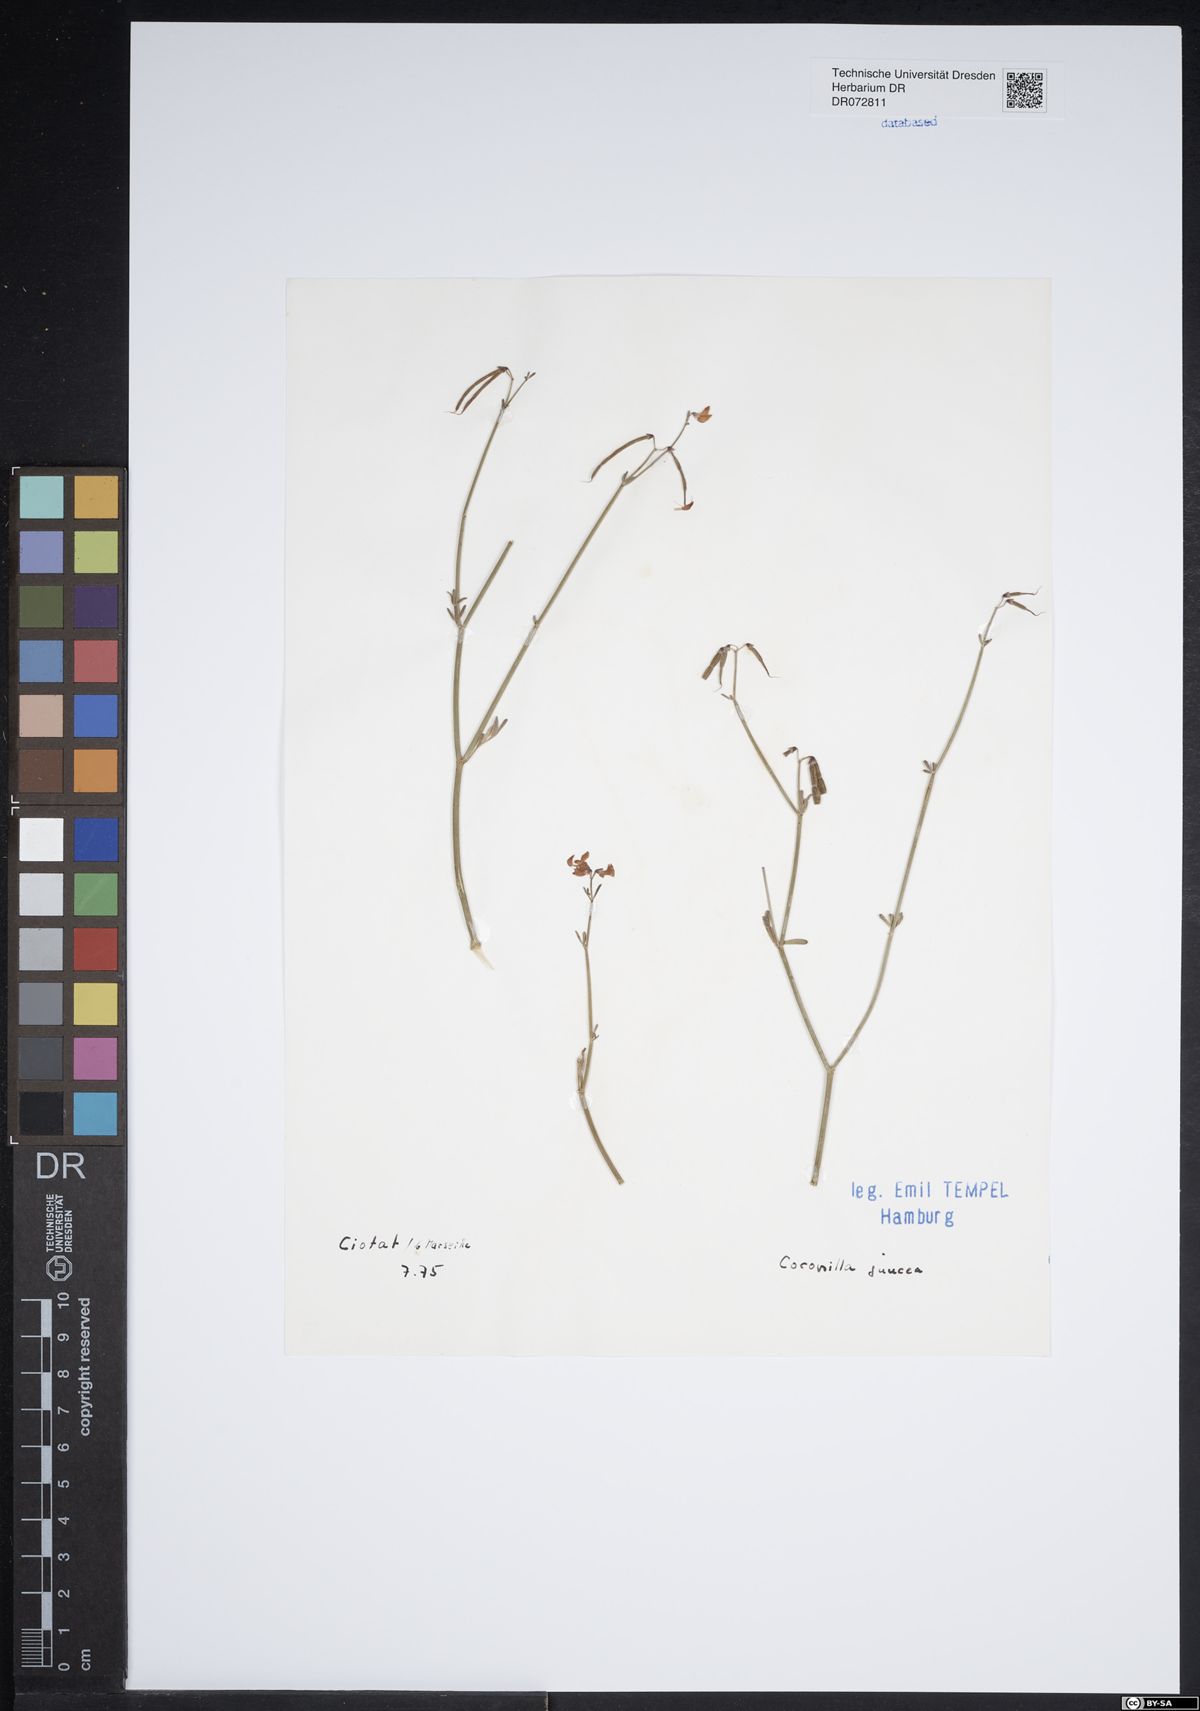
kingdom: Plantae
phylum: Tracheophyta
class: Magnoliopsida
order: Fabales
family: Fabaceae
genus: Coronilla
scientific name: Coronilla juncea
